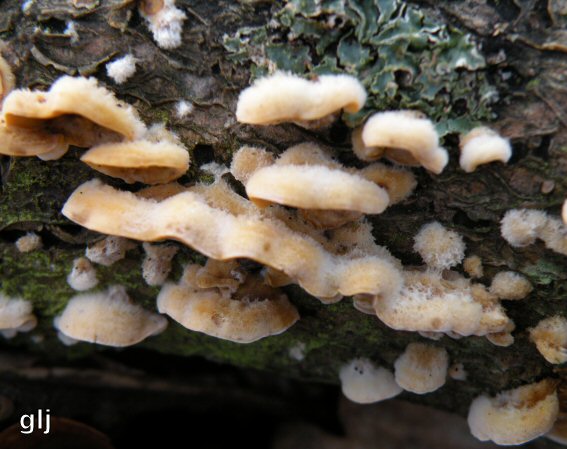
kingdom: Fungi
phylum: Basidiomycota
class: Agaricomycetes
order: Russulales
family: Stereaceae
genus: Stereum
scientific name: Stereum hirsutum
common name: håret lædersvamp
